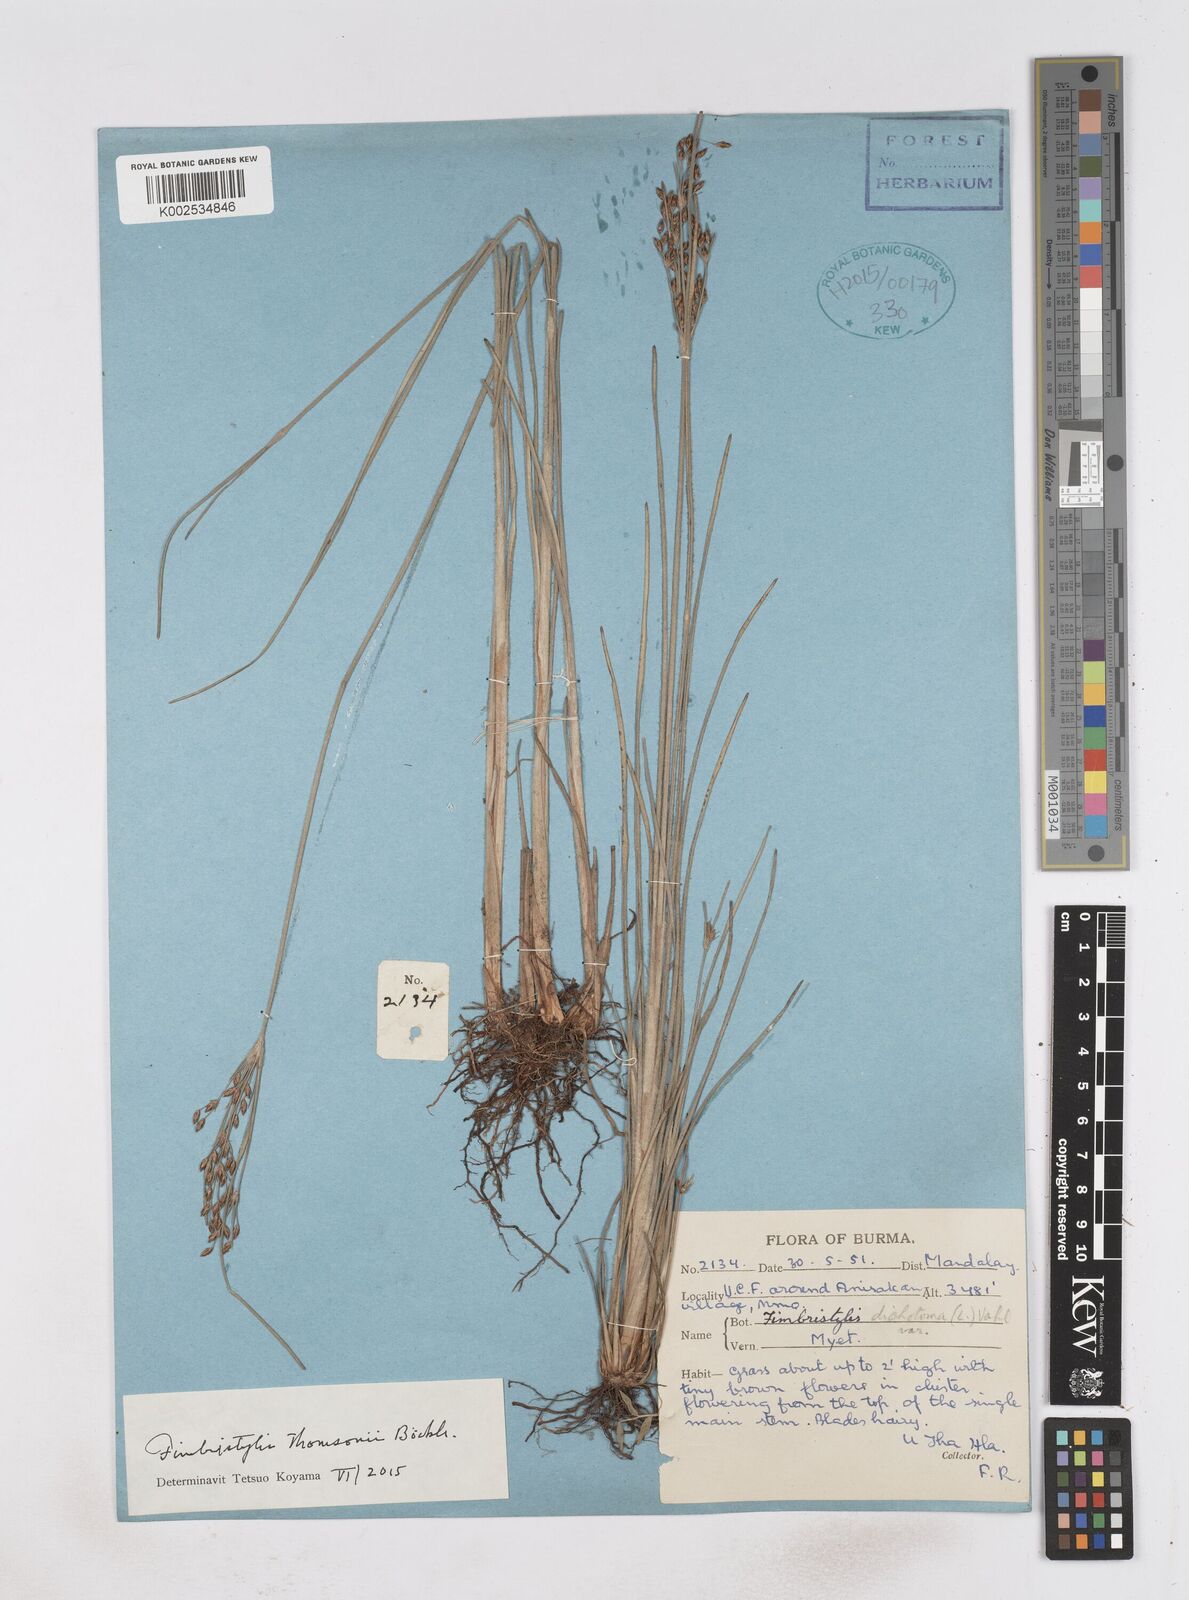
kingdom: Plantae
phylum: Tracheophyta
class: Liliopsida
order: Poales
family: Cyperaceae
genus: Fimbristylis
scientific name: Fimbristylis thomsonii
